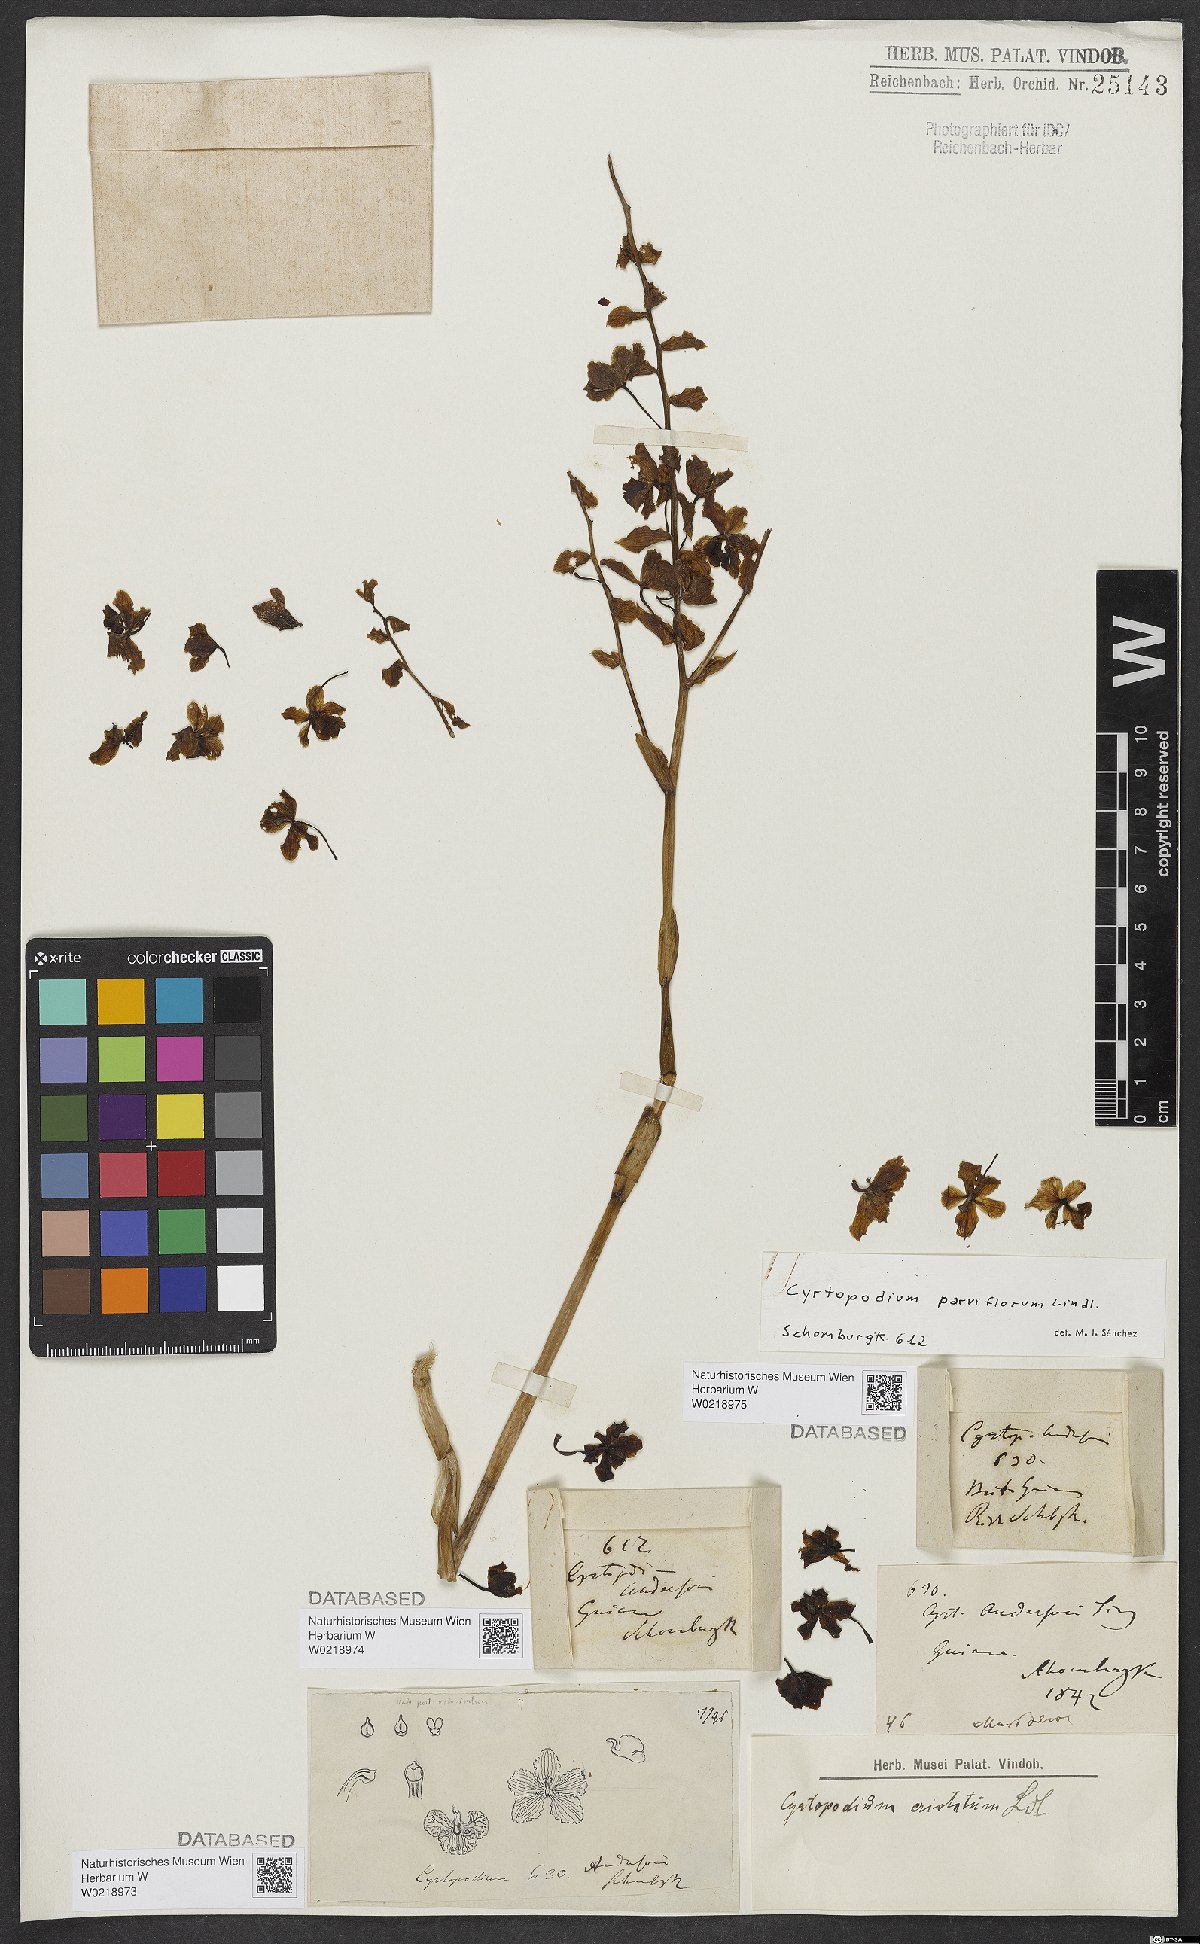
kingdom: Plantae
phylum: Tracheophyta
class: Liliopsida
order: Asparagales
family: Orchidaceae
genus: Cyrtopodium
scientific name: Cyrtopodium parviflorum
